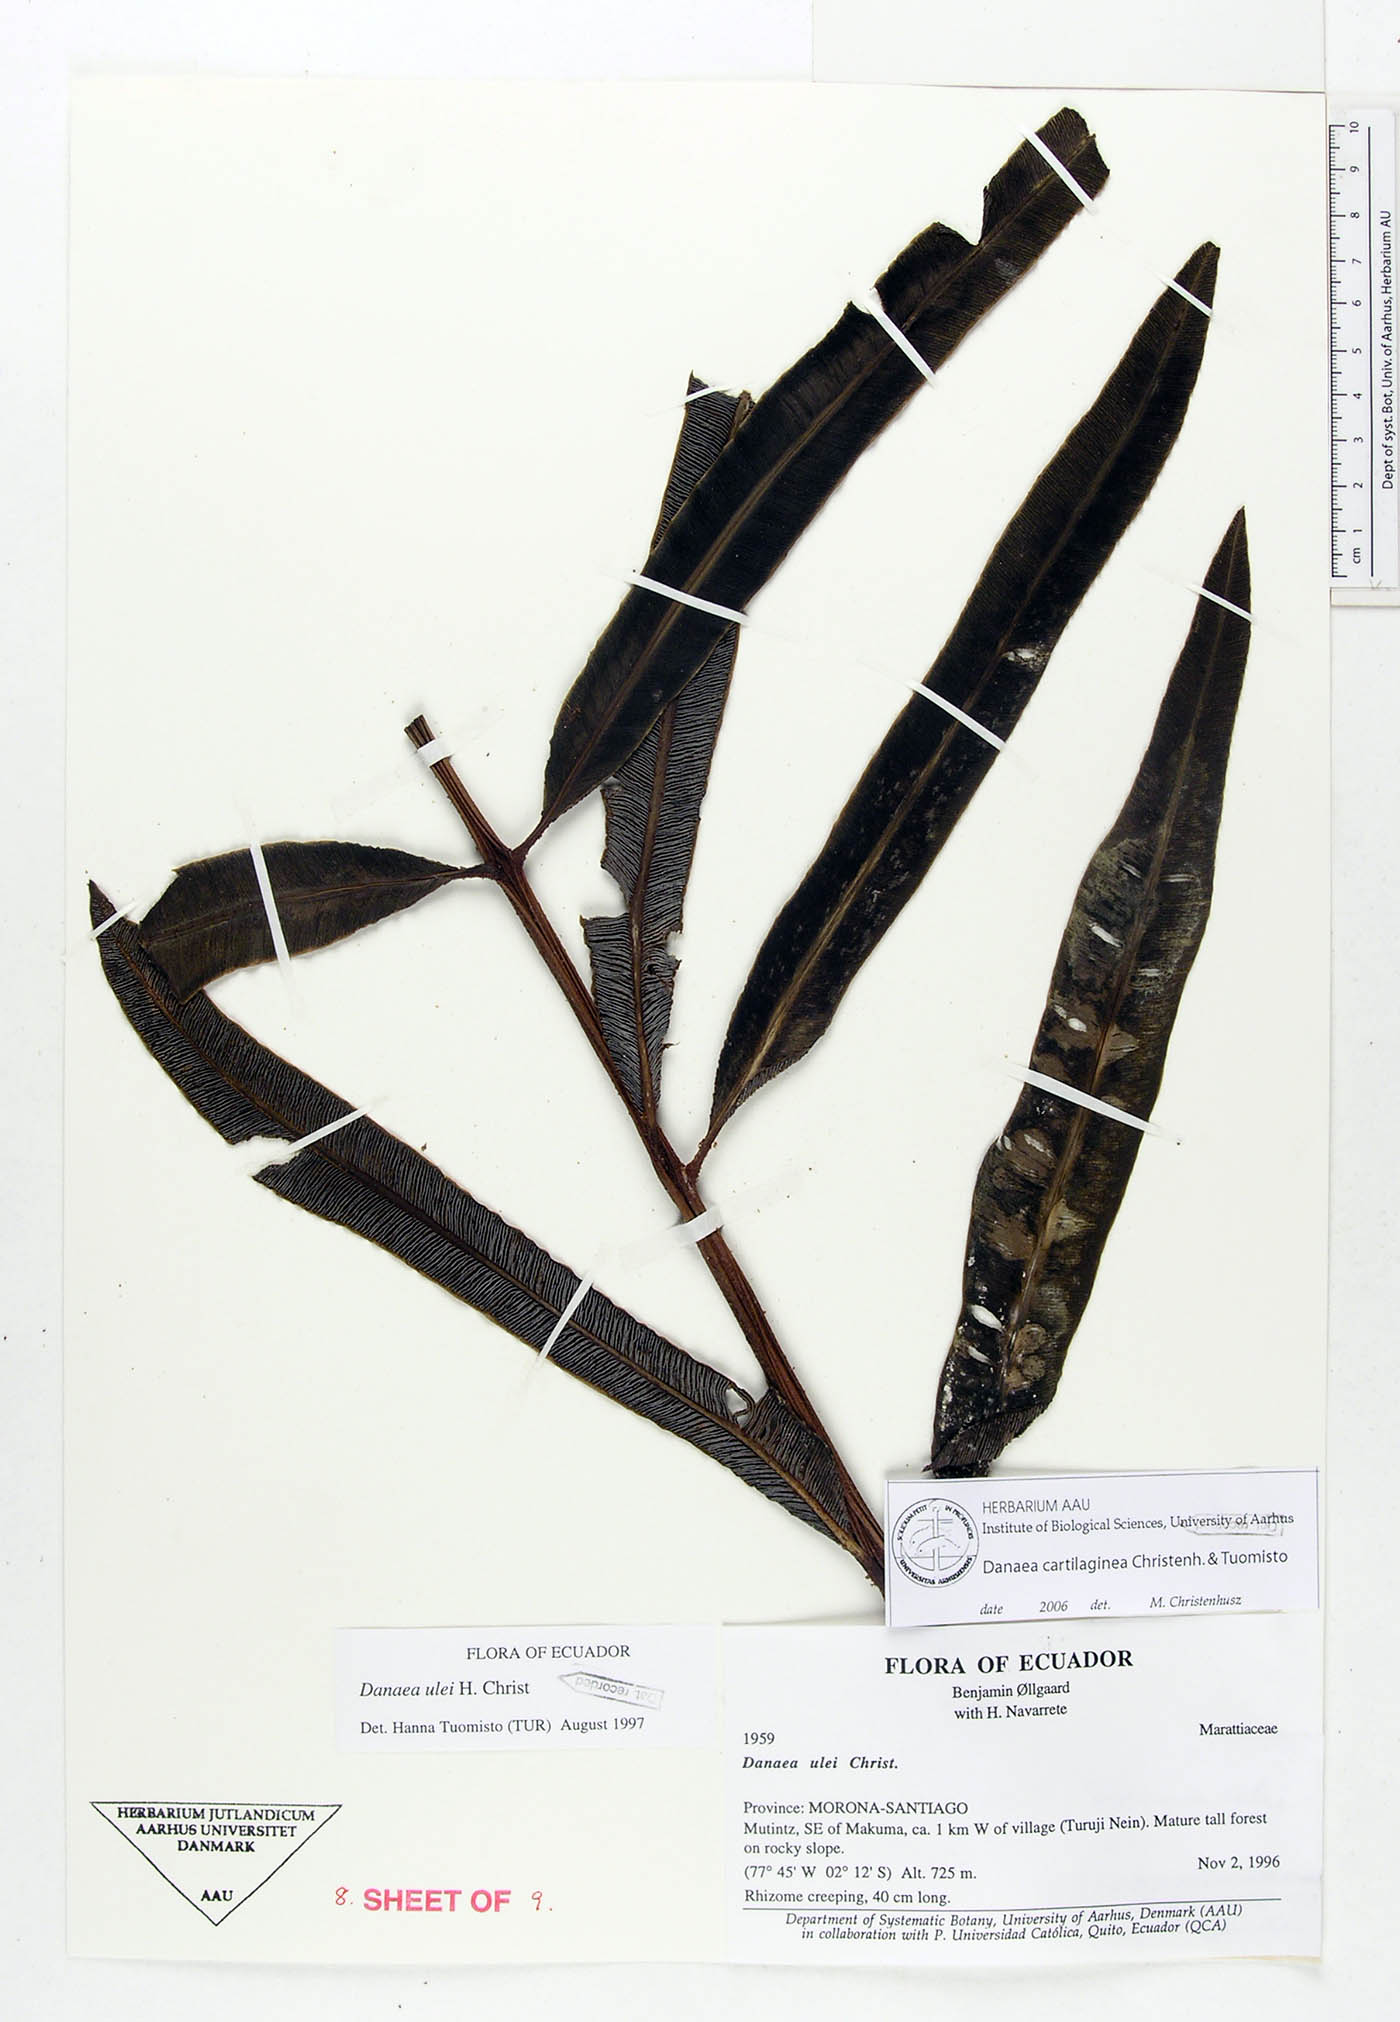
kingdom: Plantae
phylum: Tracheophyta
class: Polypodiopsida
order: Marattiales
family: Marattiaceae
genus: Danaea
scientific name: Danaea cartilaginea
